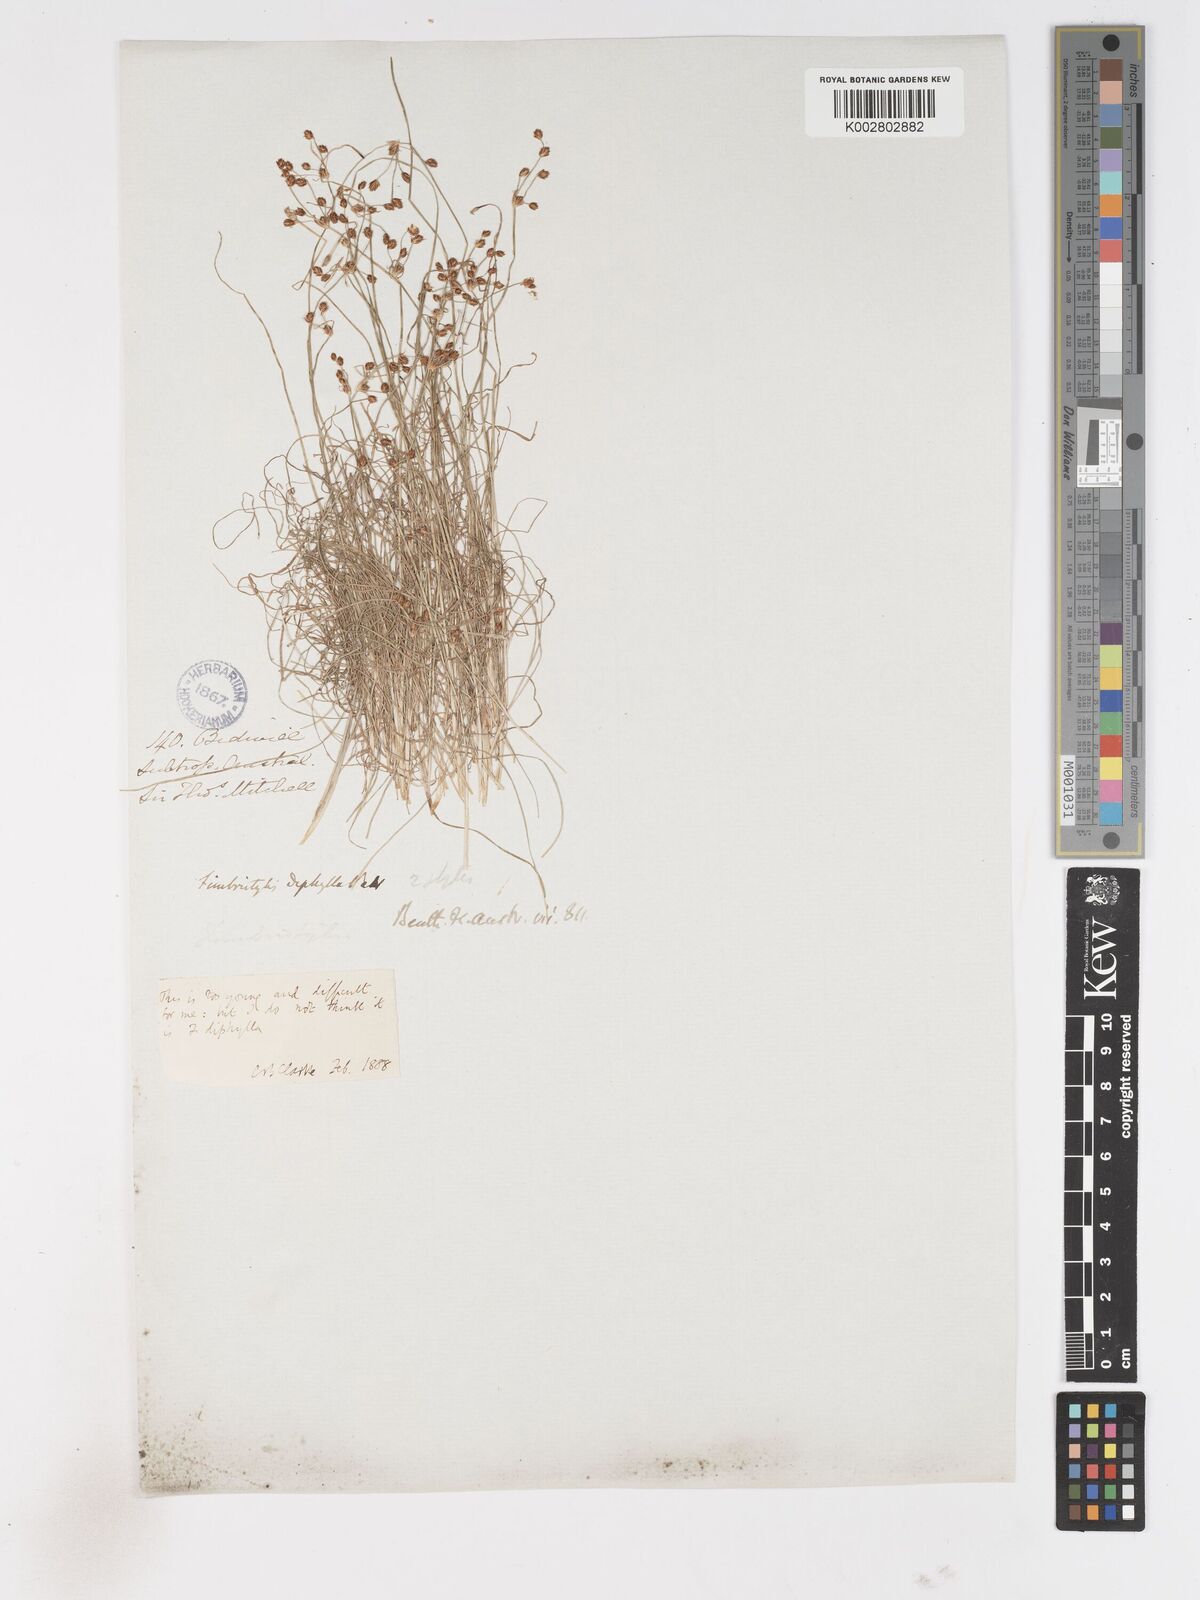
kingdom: Plantae
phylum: Tracheophyta
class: Liliopsida
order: Poales
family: Cyperaceae
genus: Fimbristylis
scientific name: Fimbristylis
